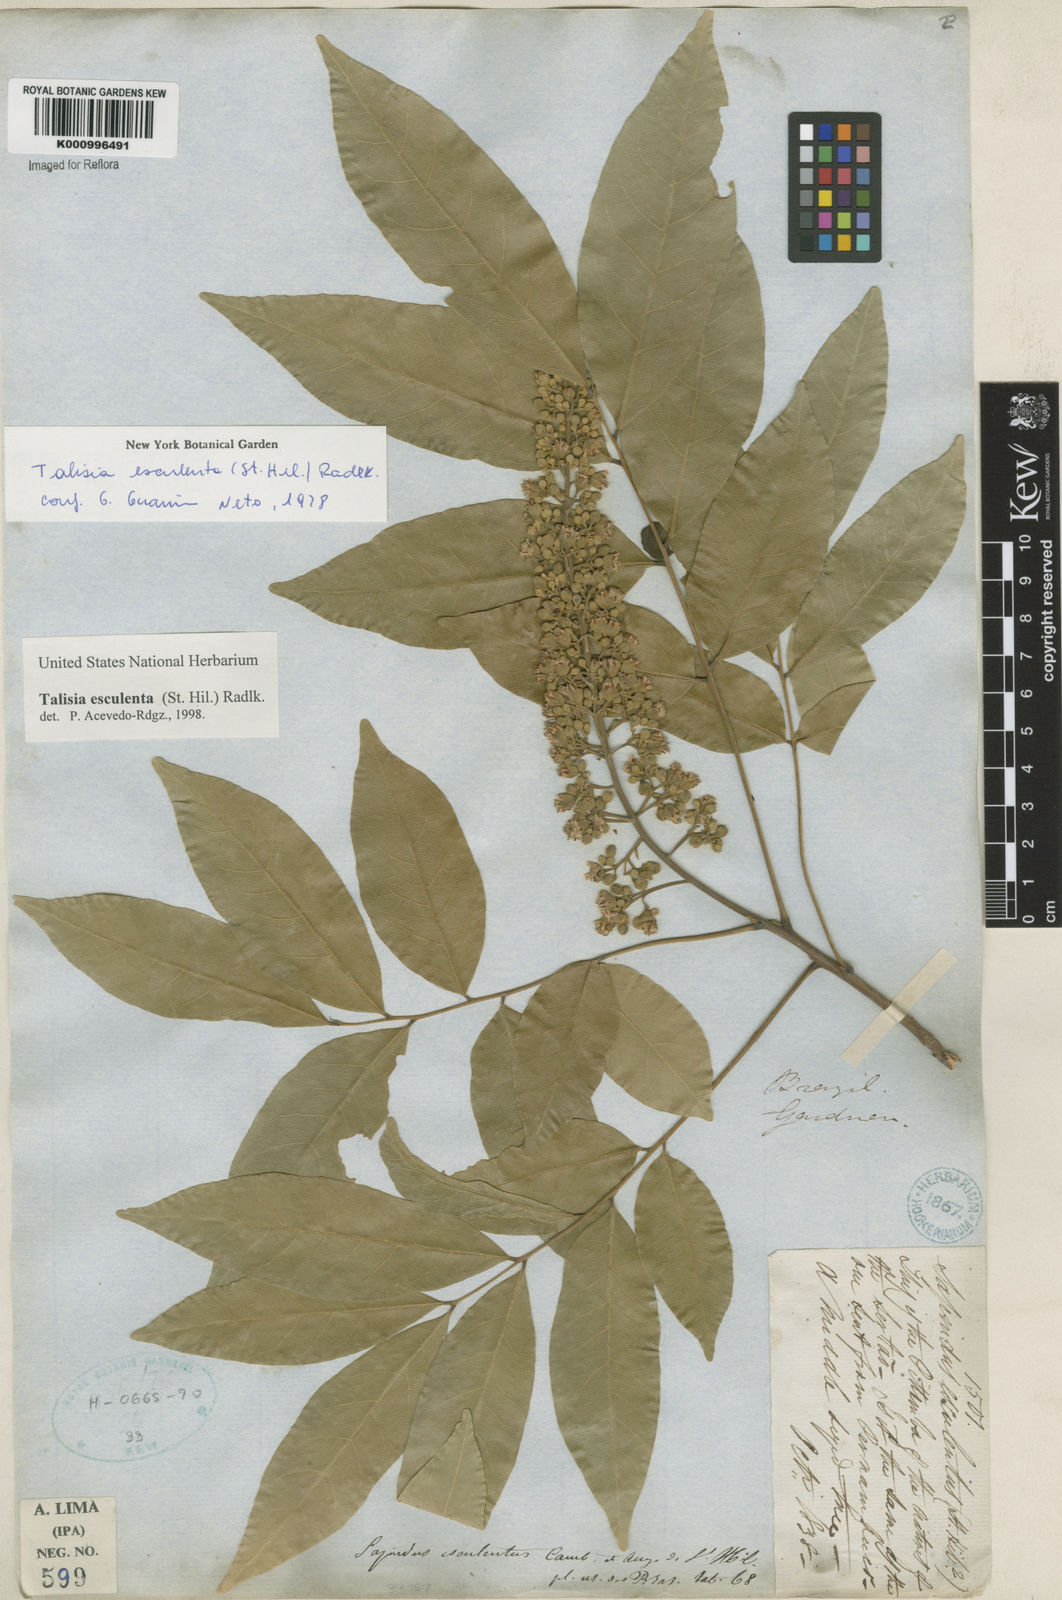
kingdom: Plantae
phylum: Tracheophyta
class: Magnoliopsida
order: Sapindales
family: Sapindaceae
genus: Talisia
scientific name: Talisia
